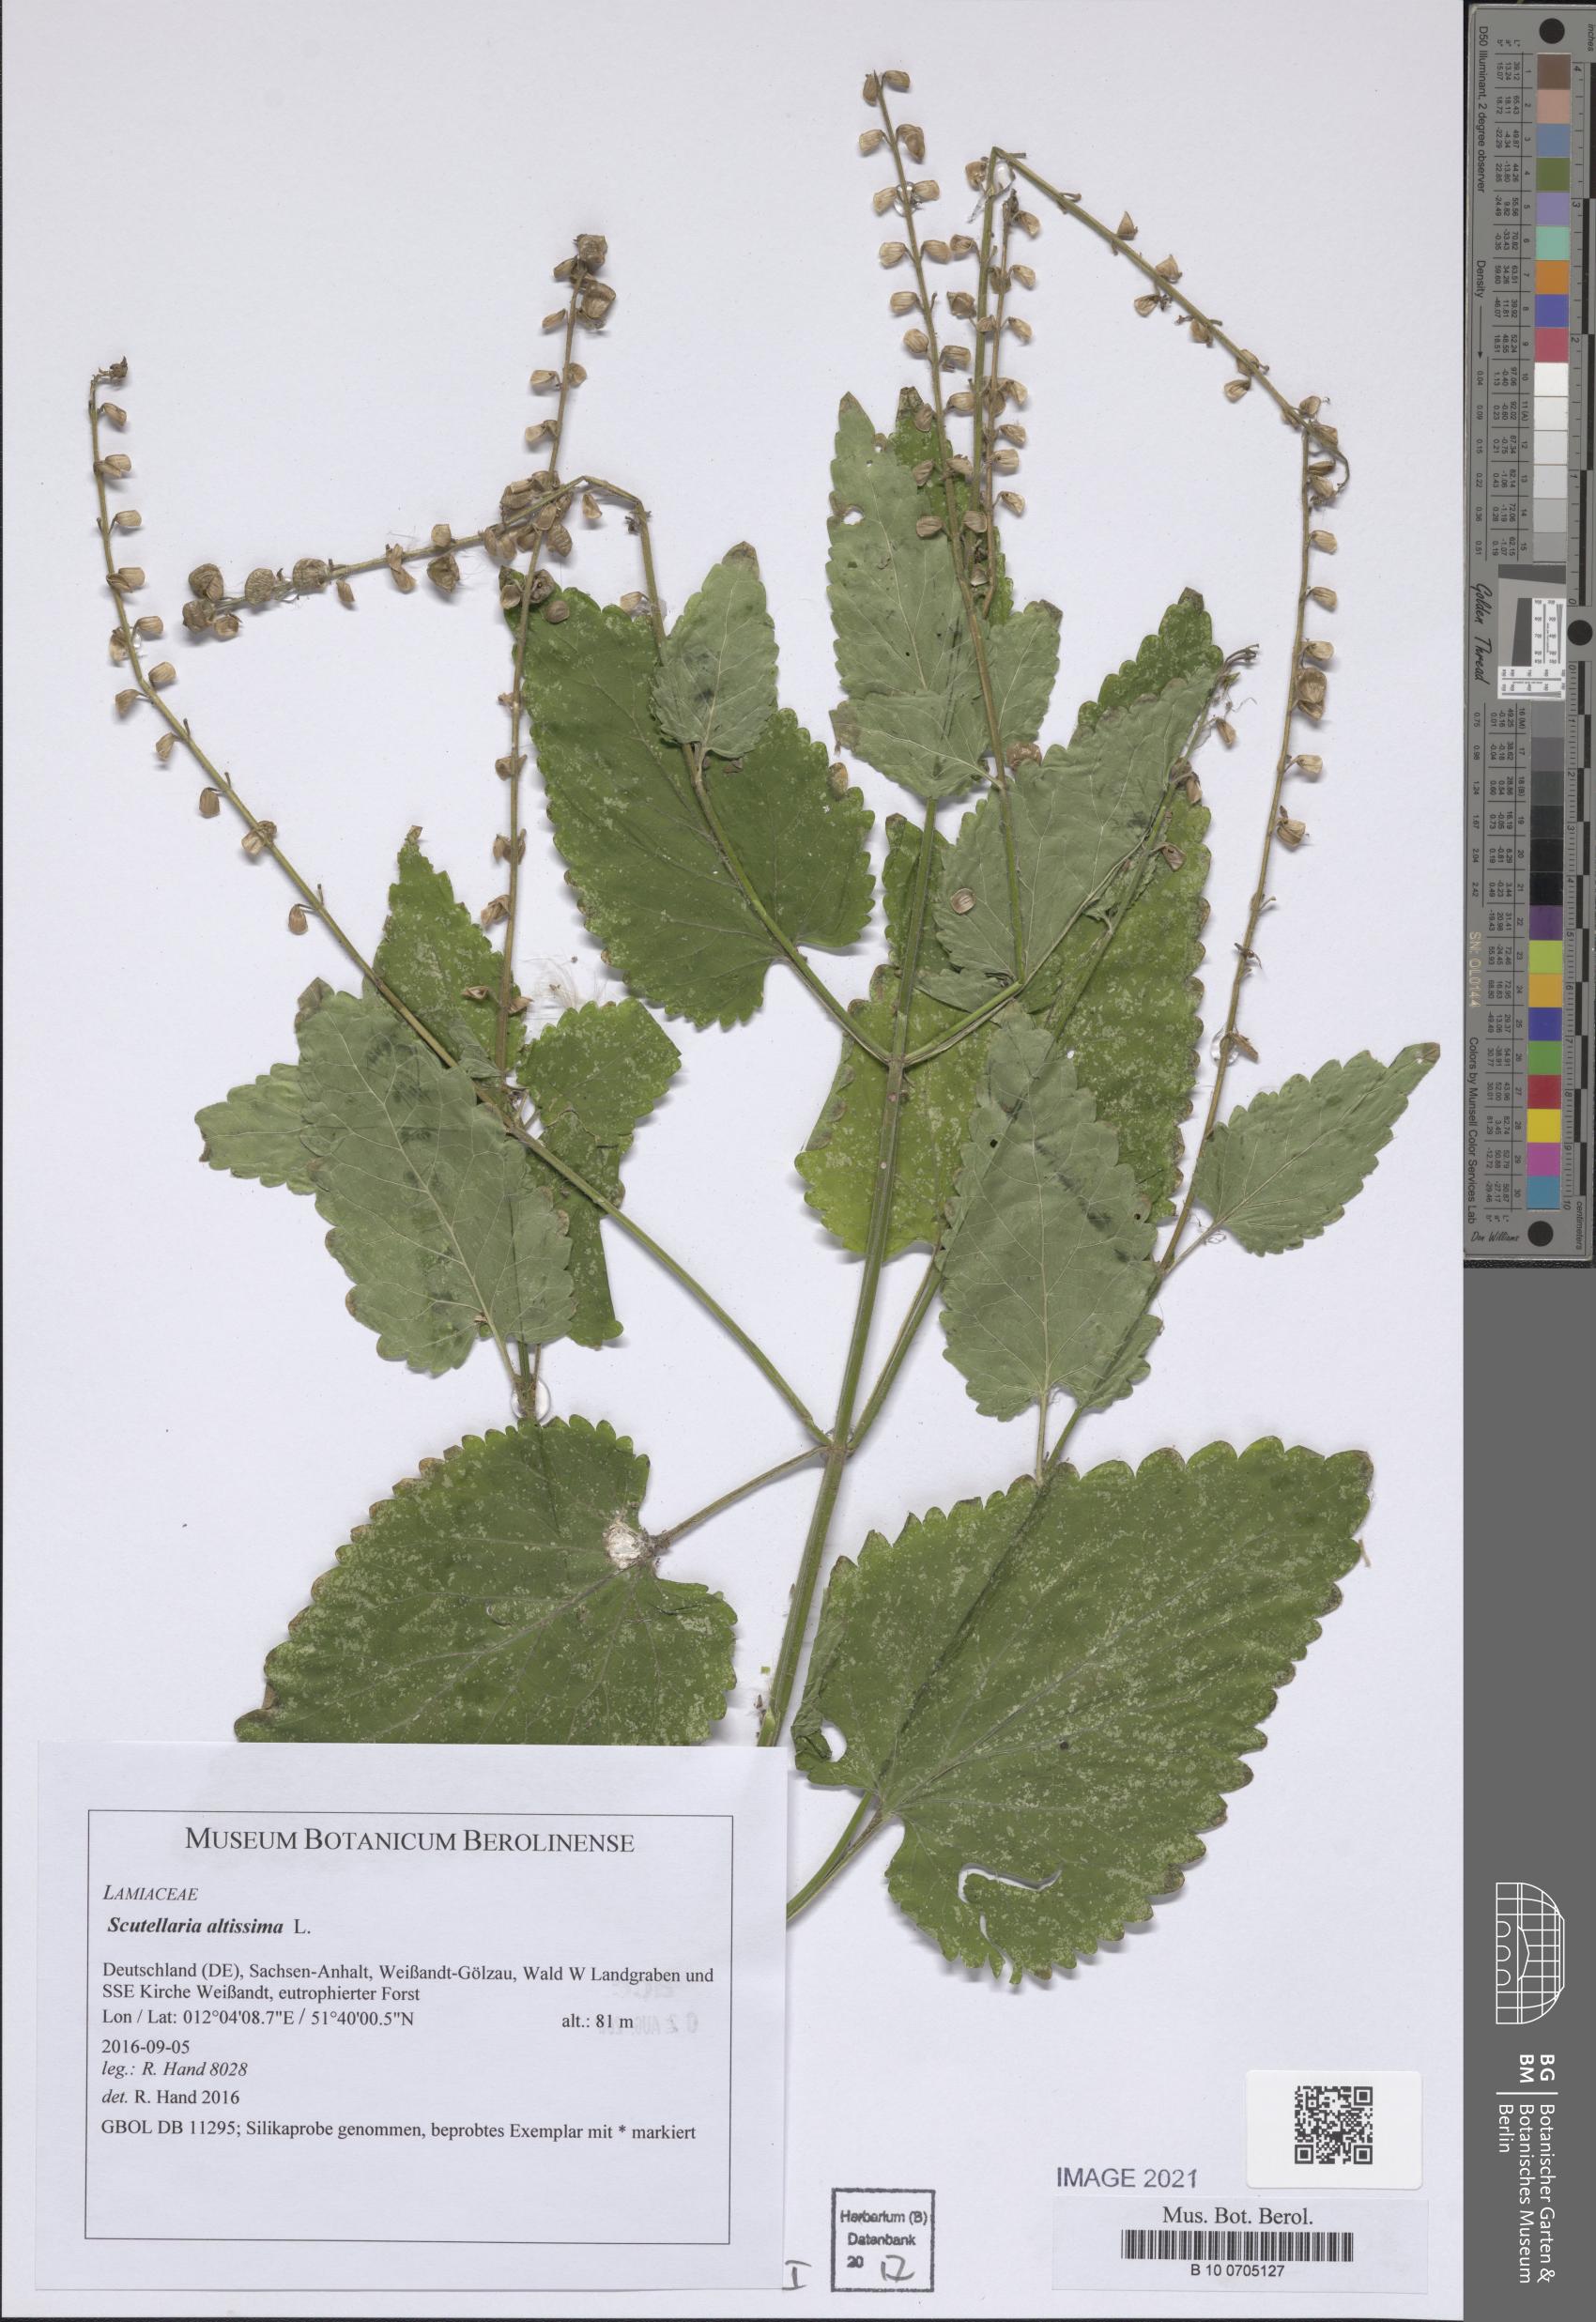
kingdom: Plantae
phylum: Tracheophyta
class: Magnoliopsida
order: Lamiales
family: Lamiaceae
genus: Scutellaria
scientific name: Scutellaria altissima
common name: Somerset skullcap
